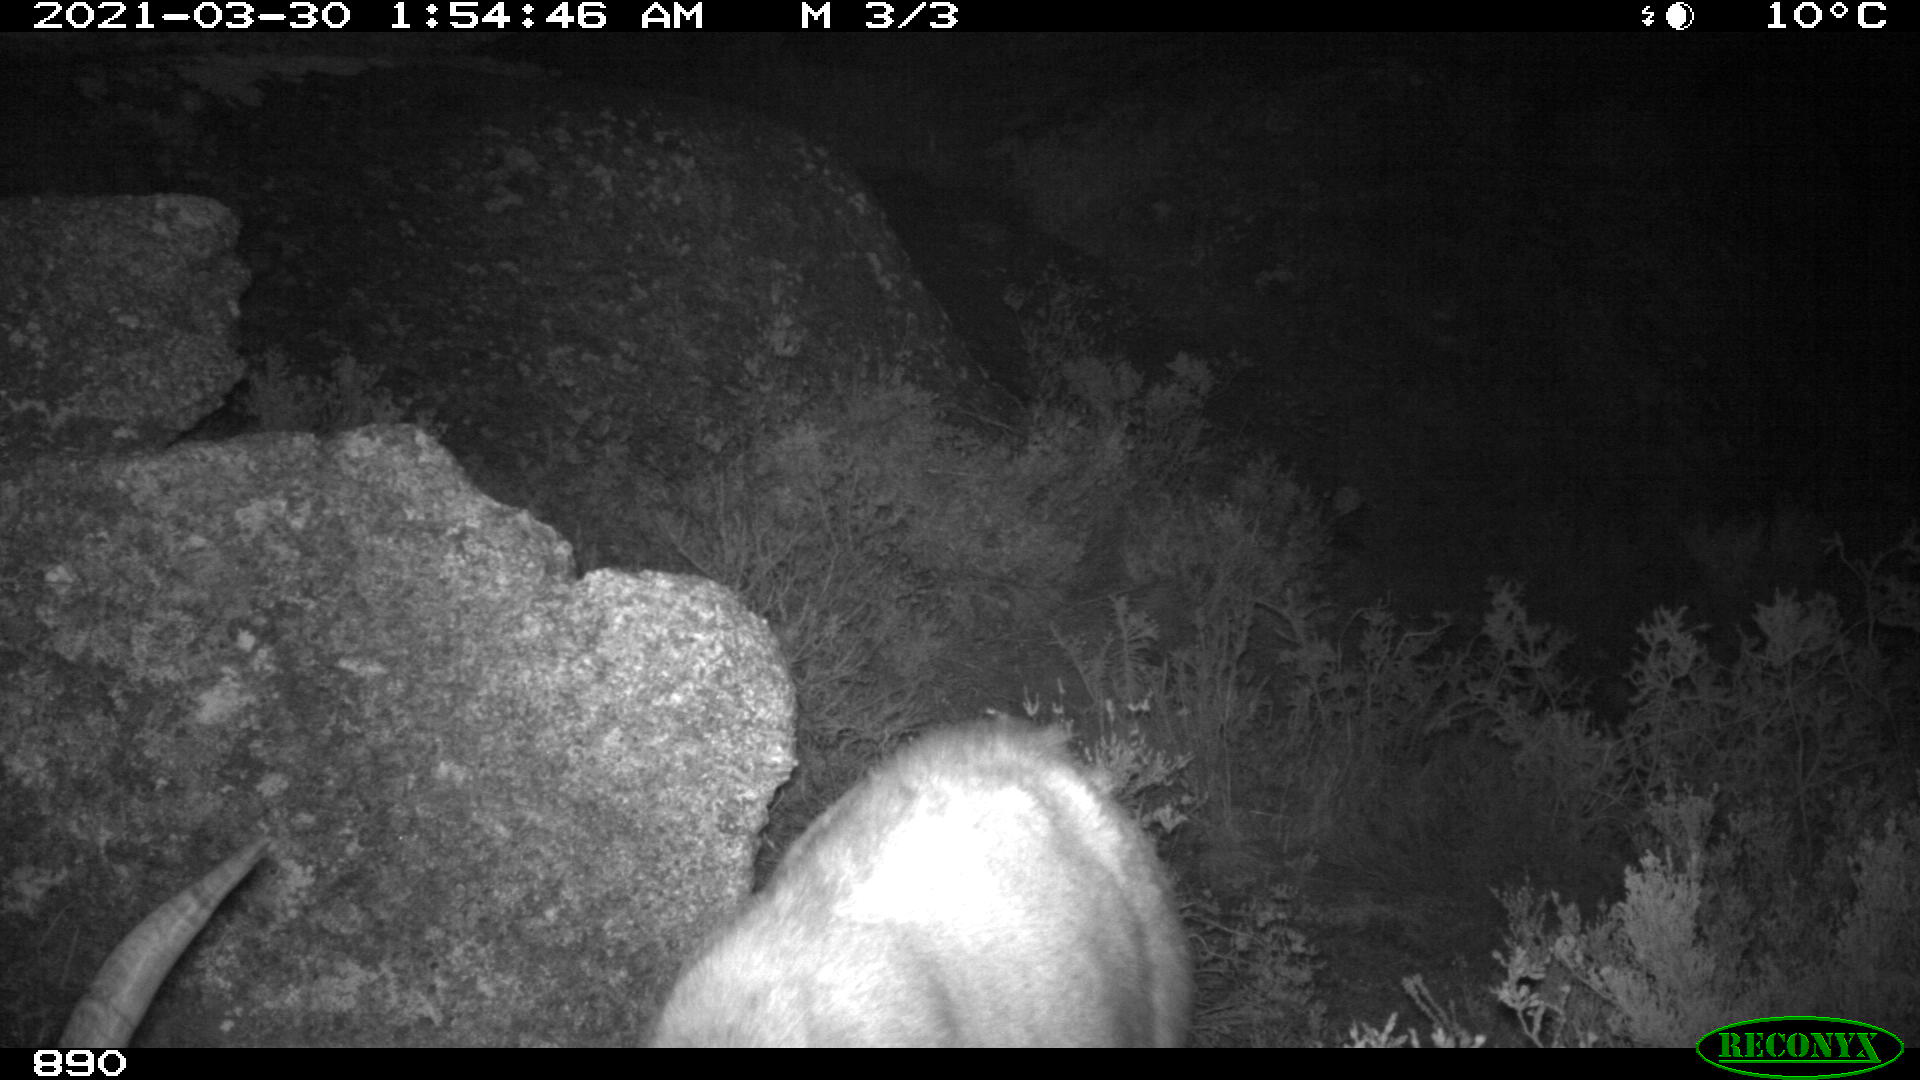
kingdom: Animalia
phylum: Chordata
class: Mammalia
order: Artiodactyla
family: Bovidae
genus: Capra
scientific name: Capra pyrenaica
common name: Spanish ibex
